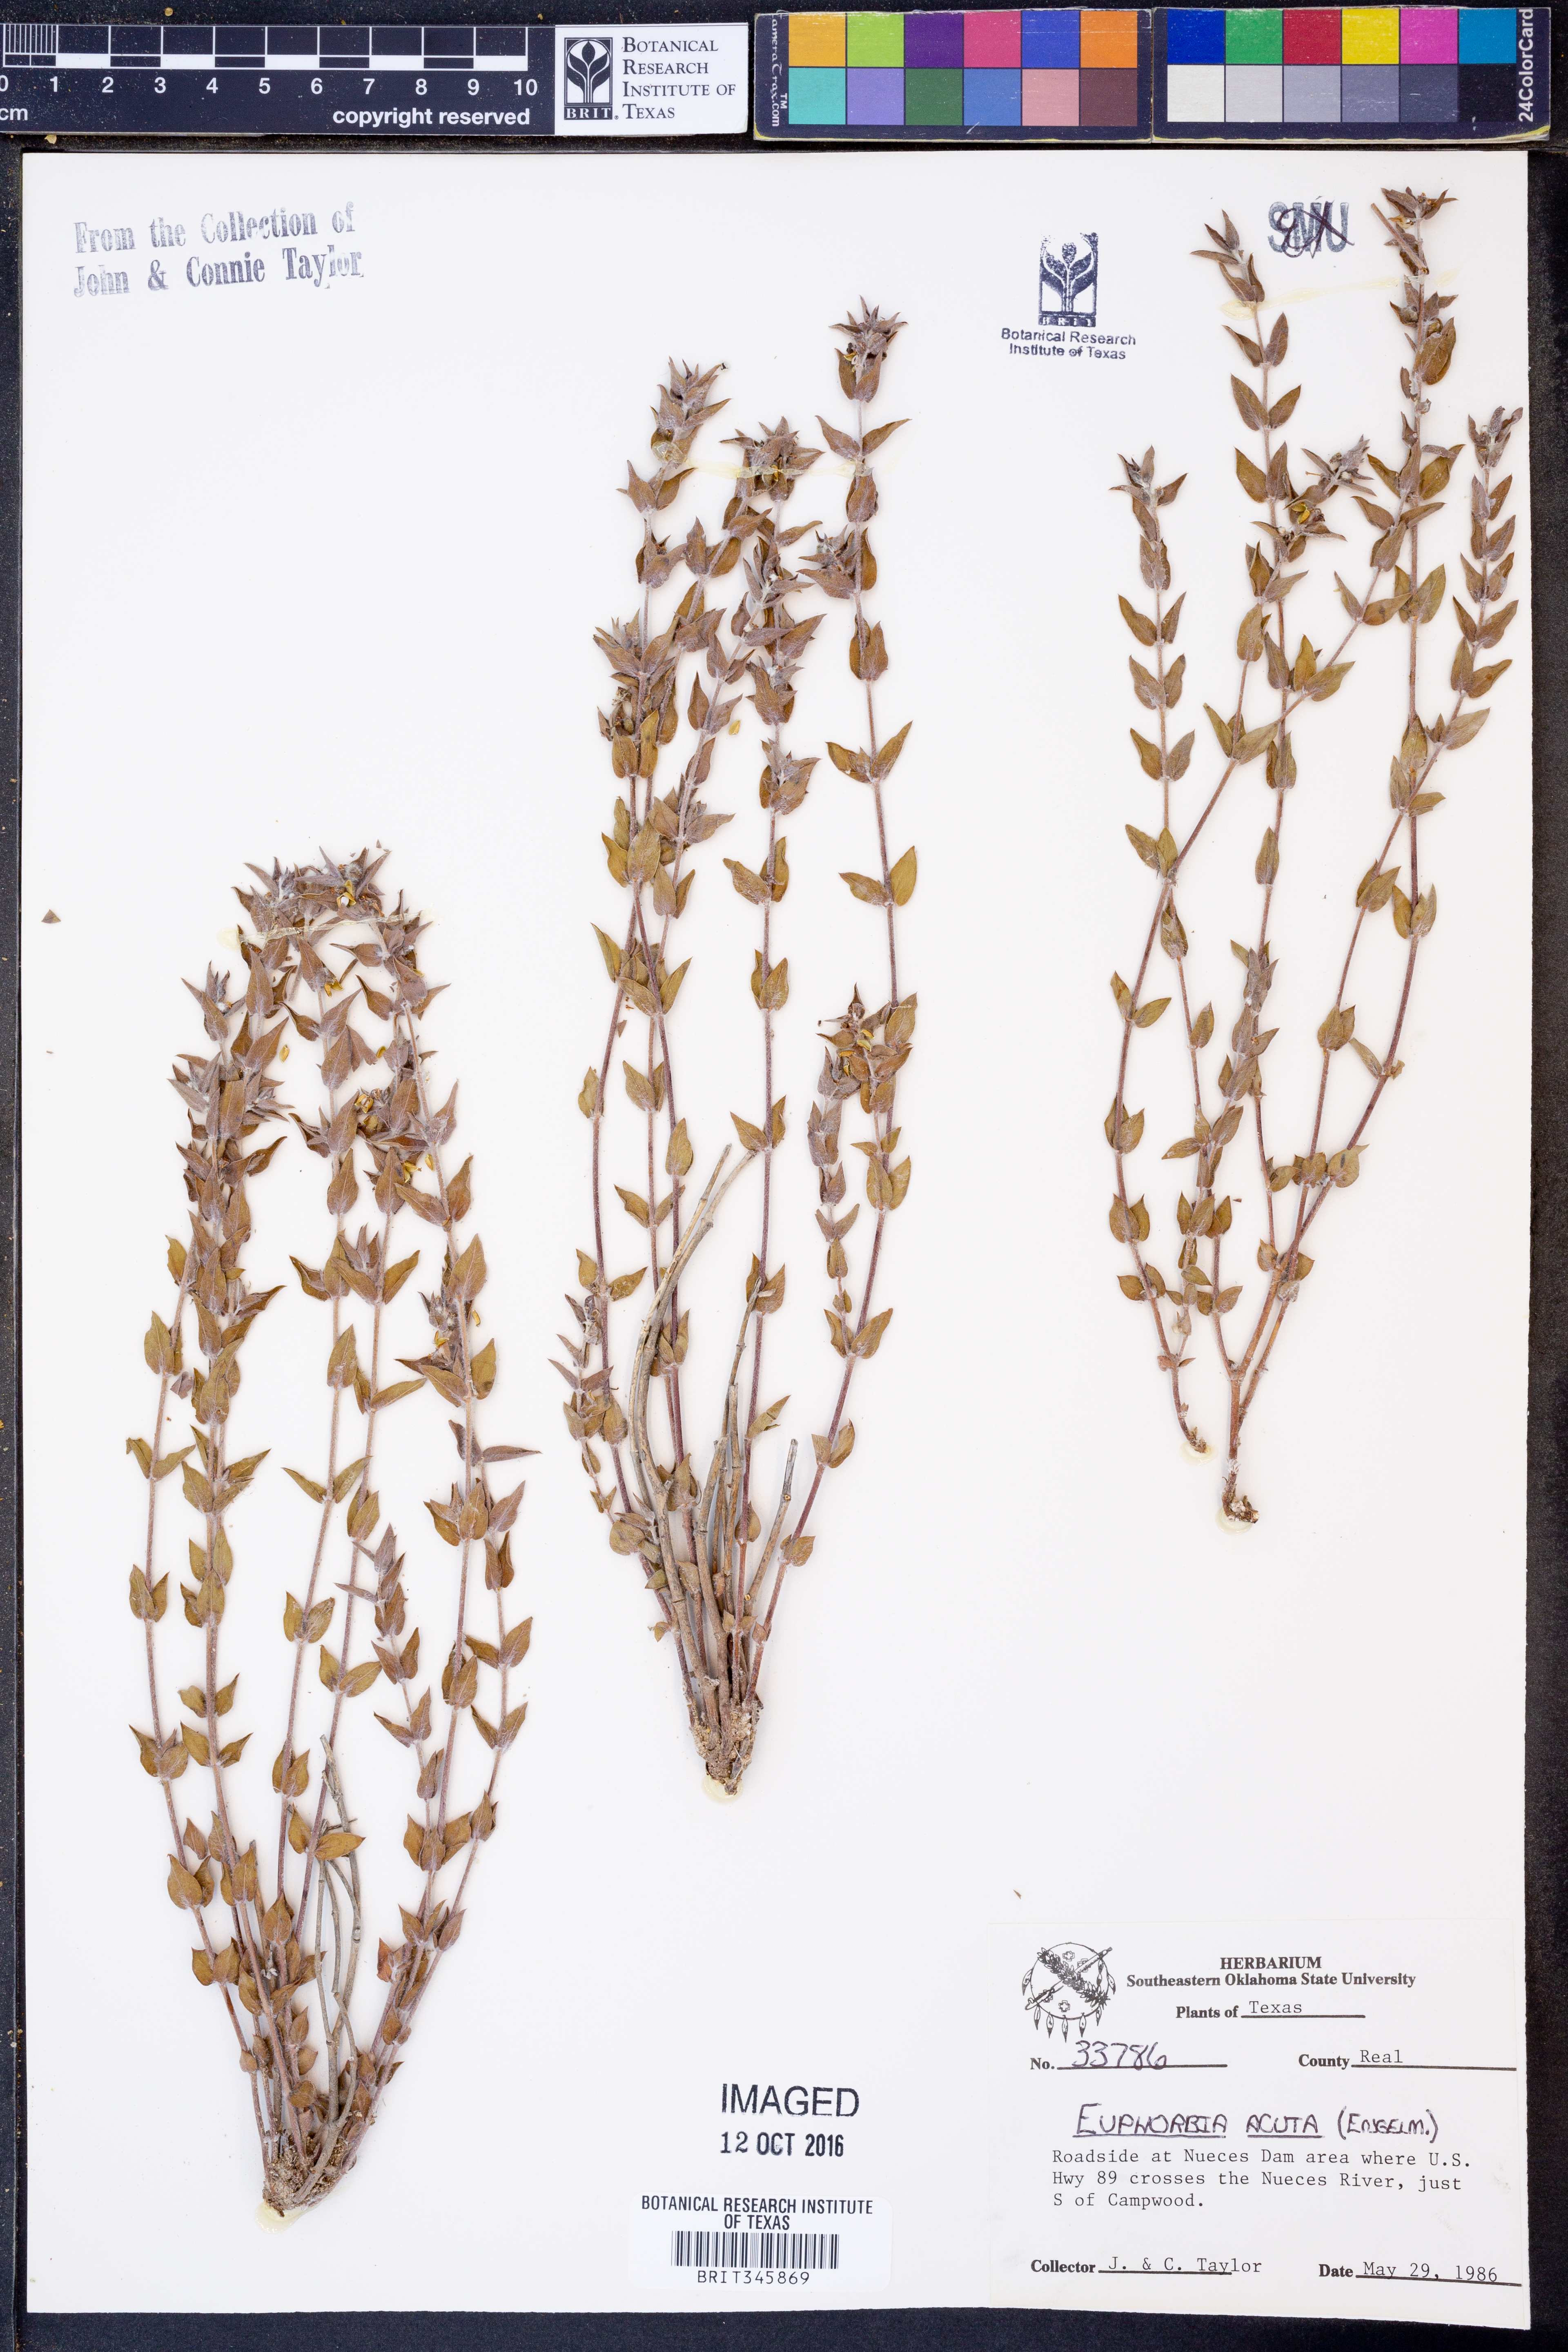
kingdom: Plantae
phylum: Tracheophyta
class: Magnoliopsida
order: Malpighiales
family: Euphorbiaceae
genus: Euphorbia
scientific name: Euphorbia acuta
